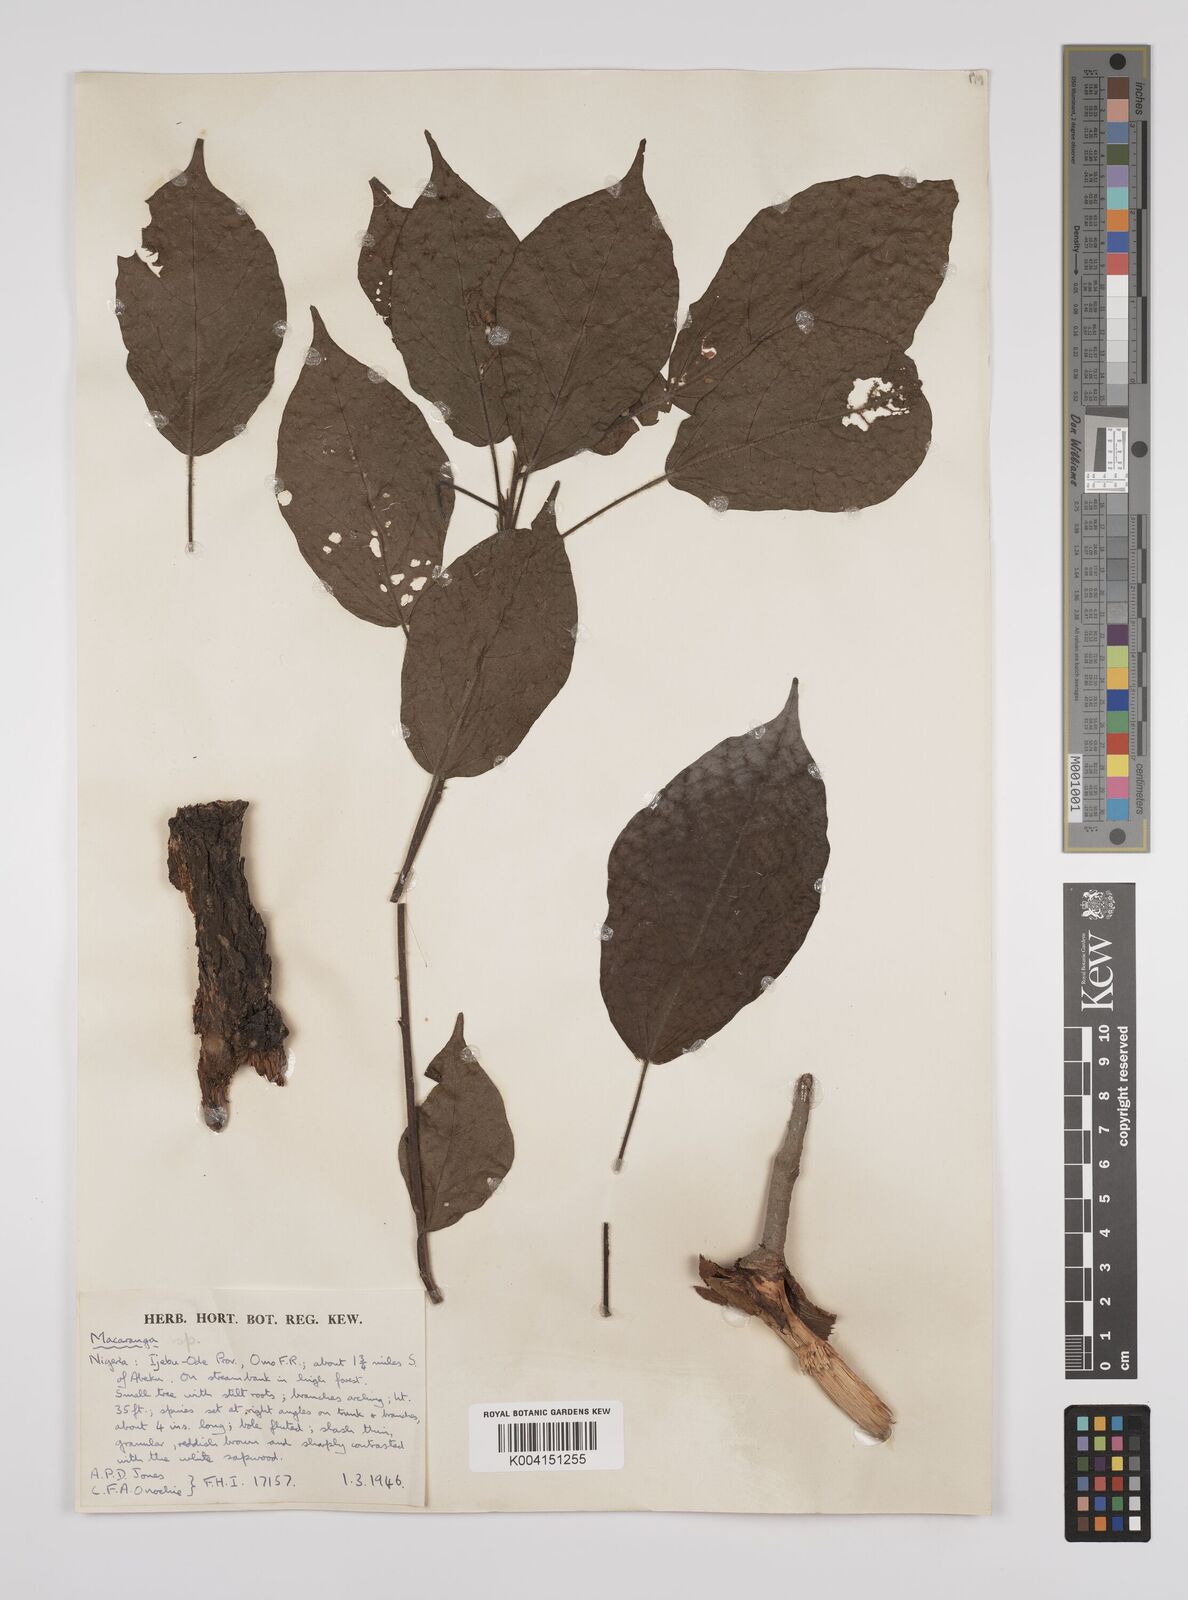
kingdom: Plantae
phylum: Tracheophyta
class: Magnoliopsida
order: Malpighiales
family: Euphorbiaceae
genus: Macaranga
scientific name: Macaranga
